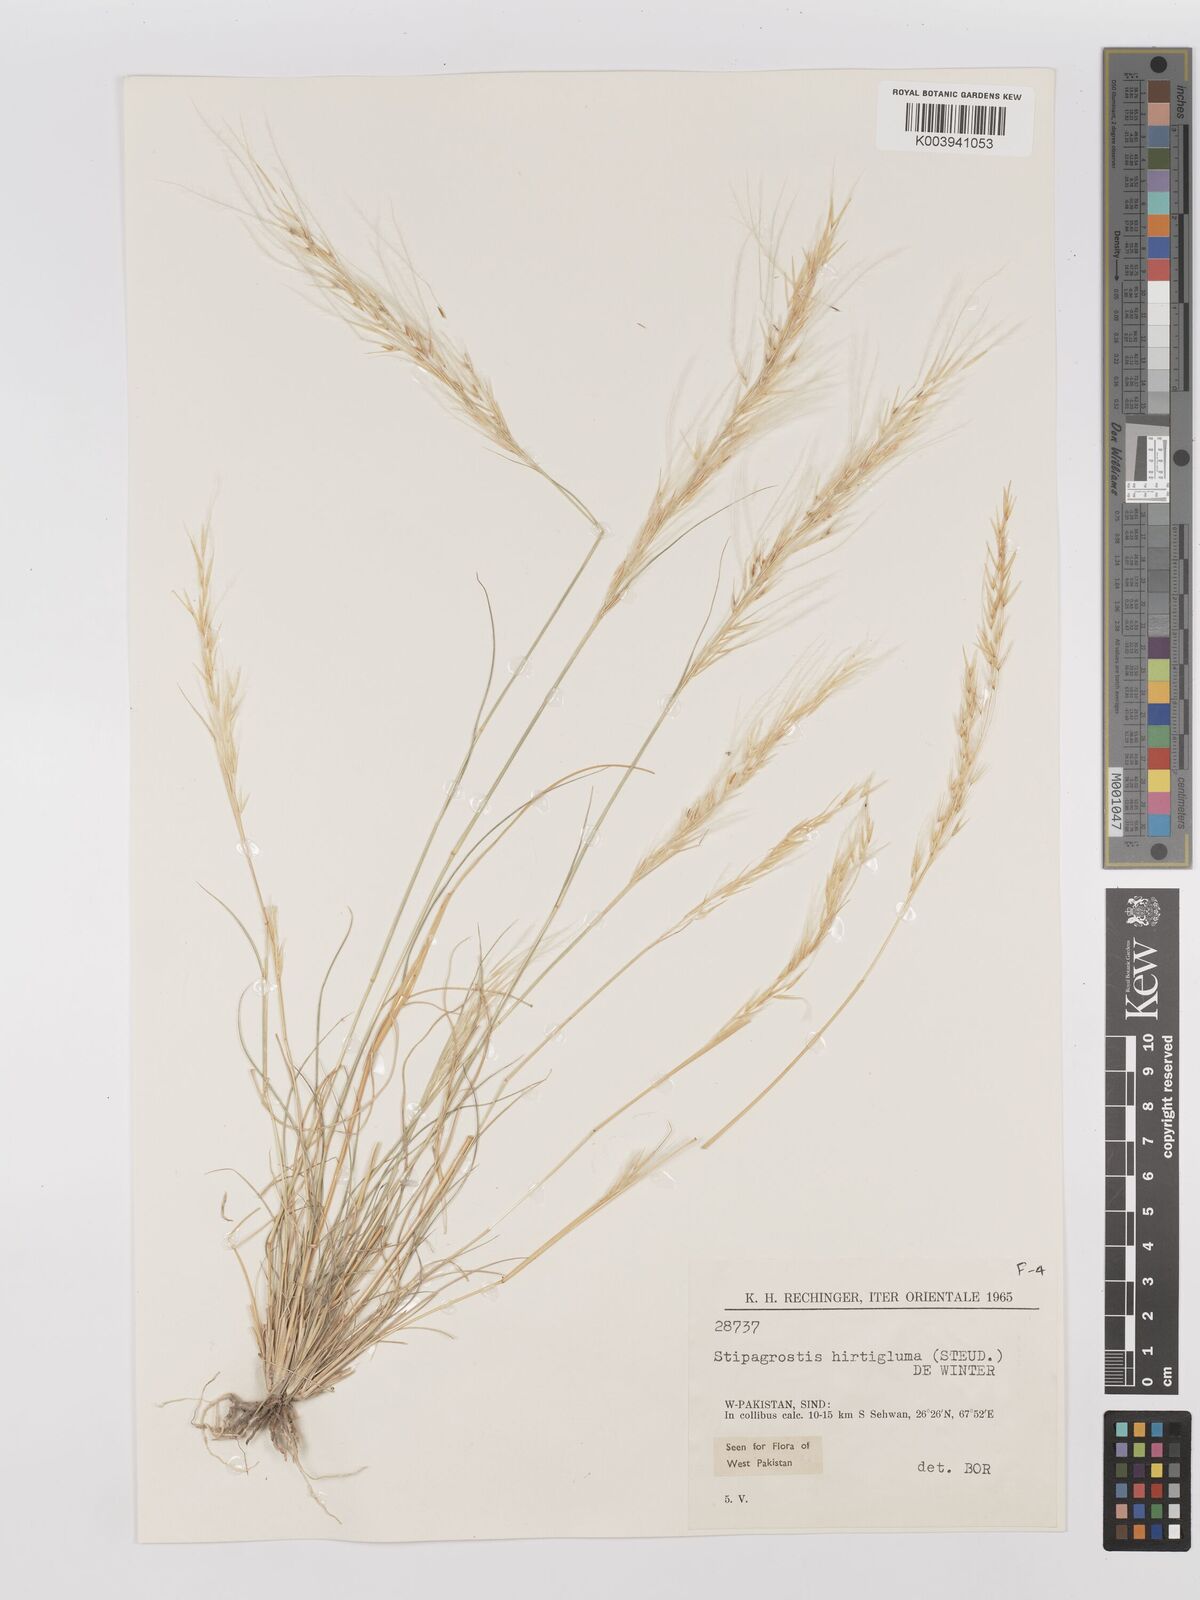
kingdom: Plantae
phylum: Tracheophyta
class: Liliopsida
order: Poales
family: Poaceae
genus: Stipagrostis
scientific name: Stipagrostis hirtigluma
